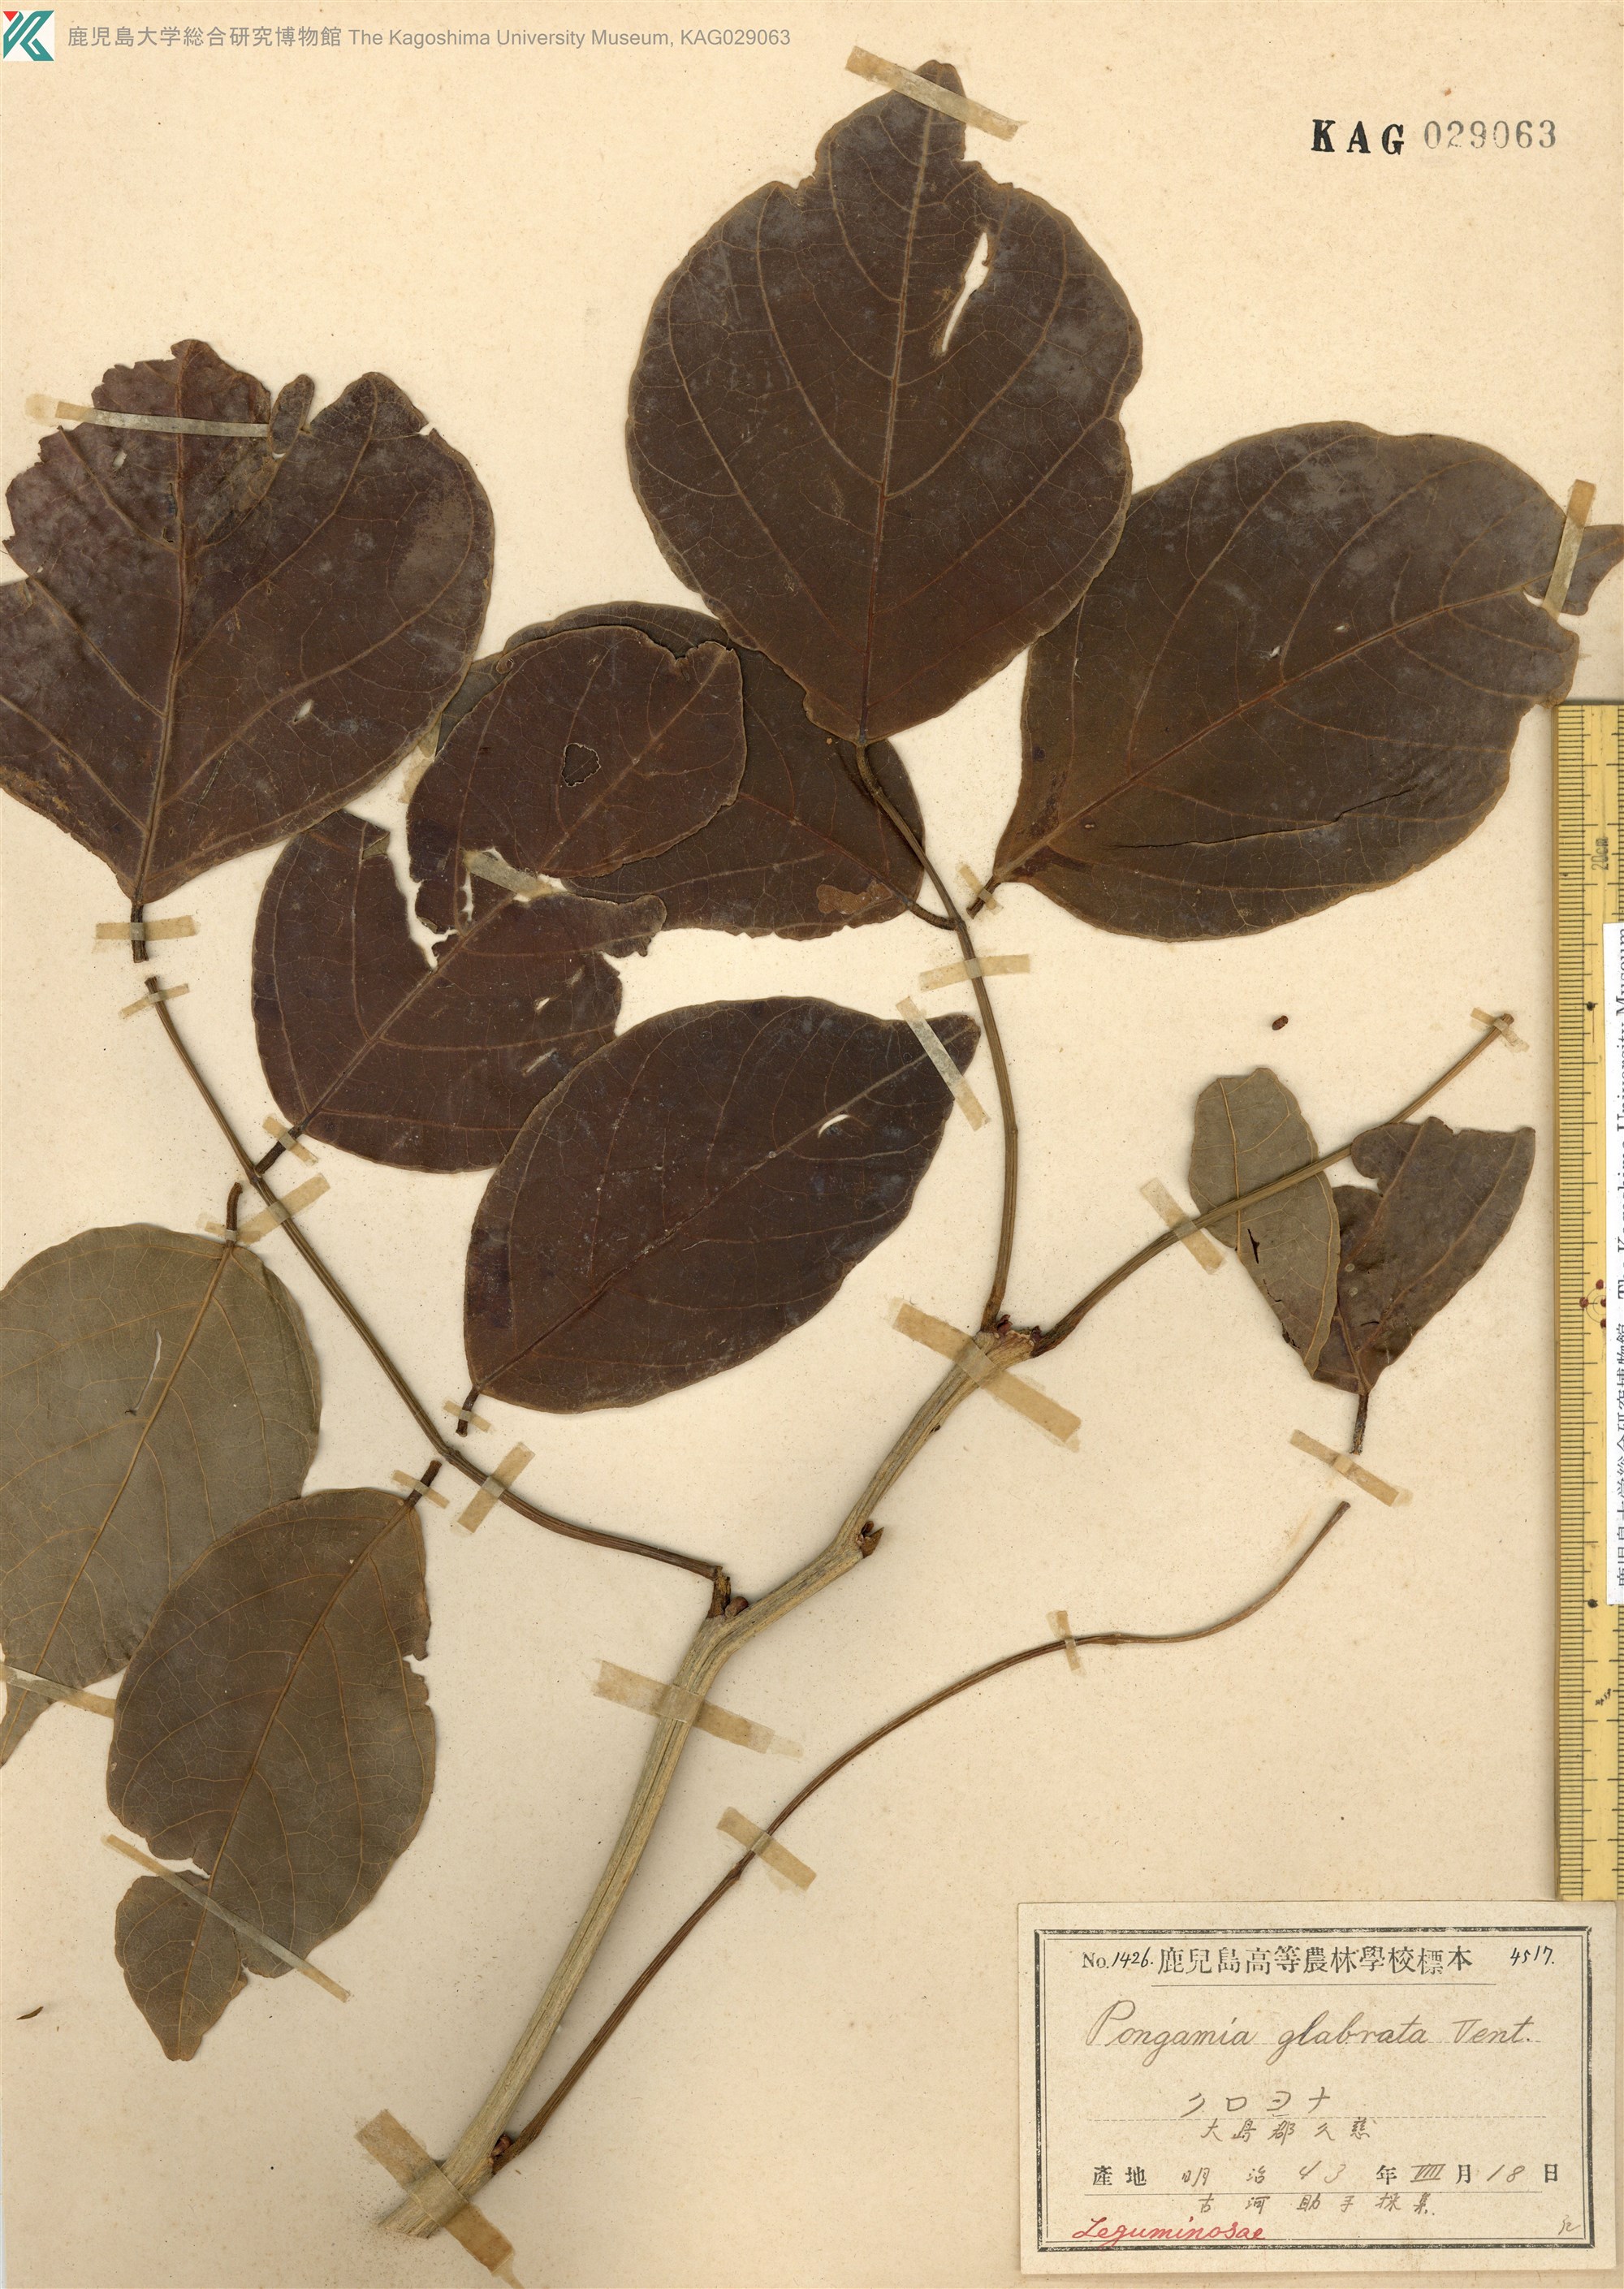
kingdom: Plantae
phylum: Tracheophyta
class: Magnoliopsida
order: Fabales
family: Fabaceae
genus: Pongamia
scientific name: Pongamia pinnata
